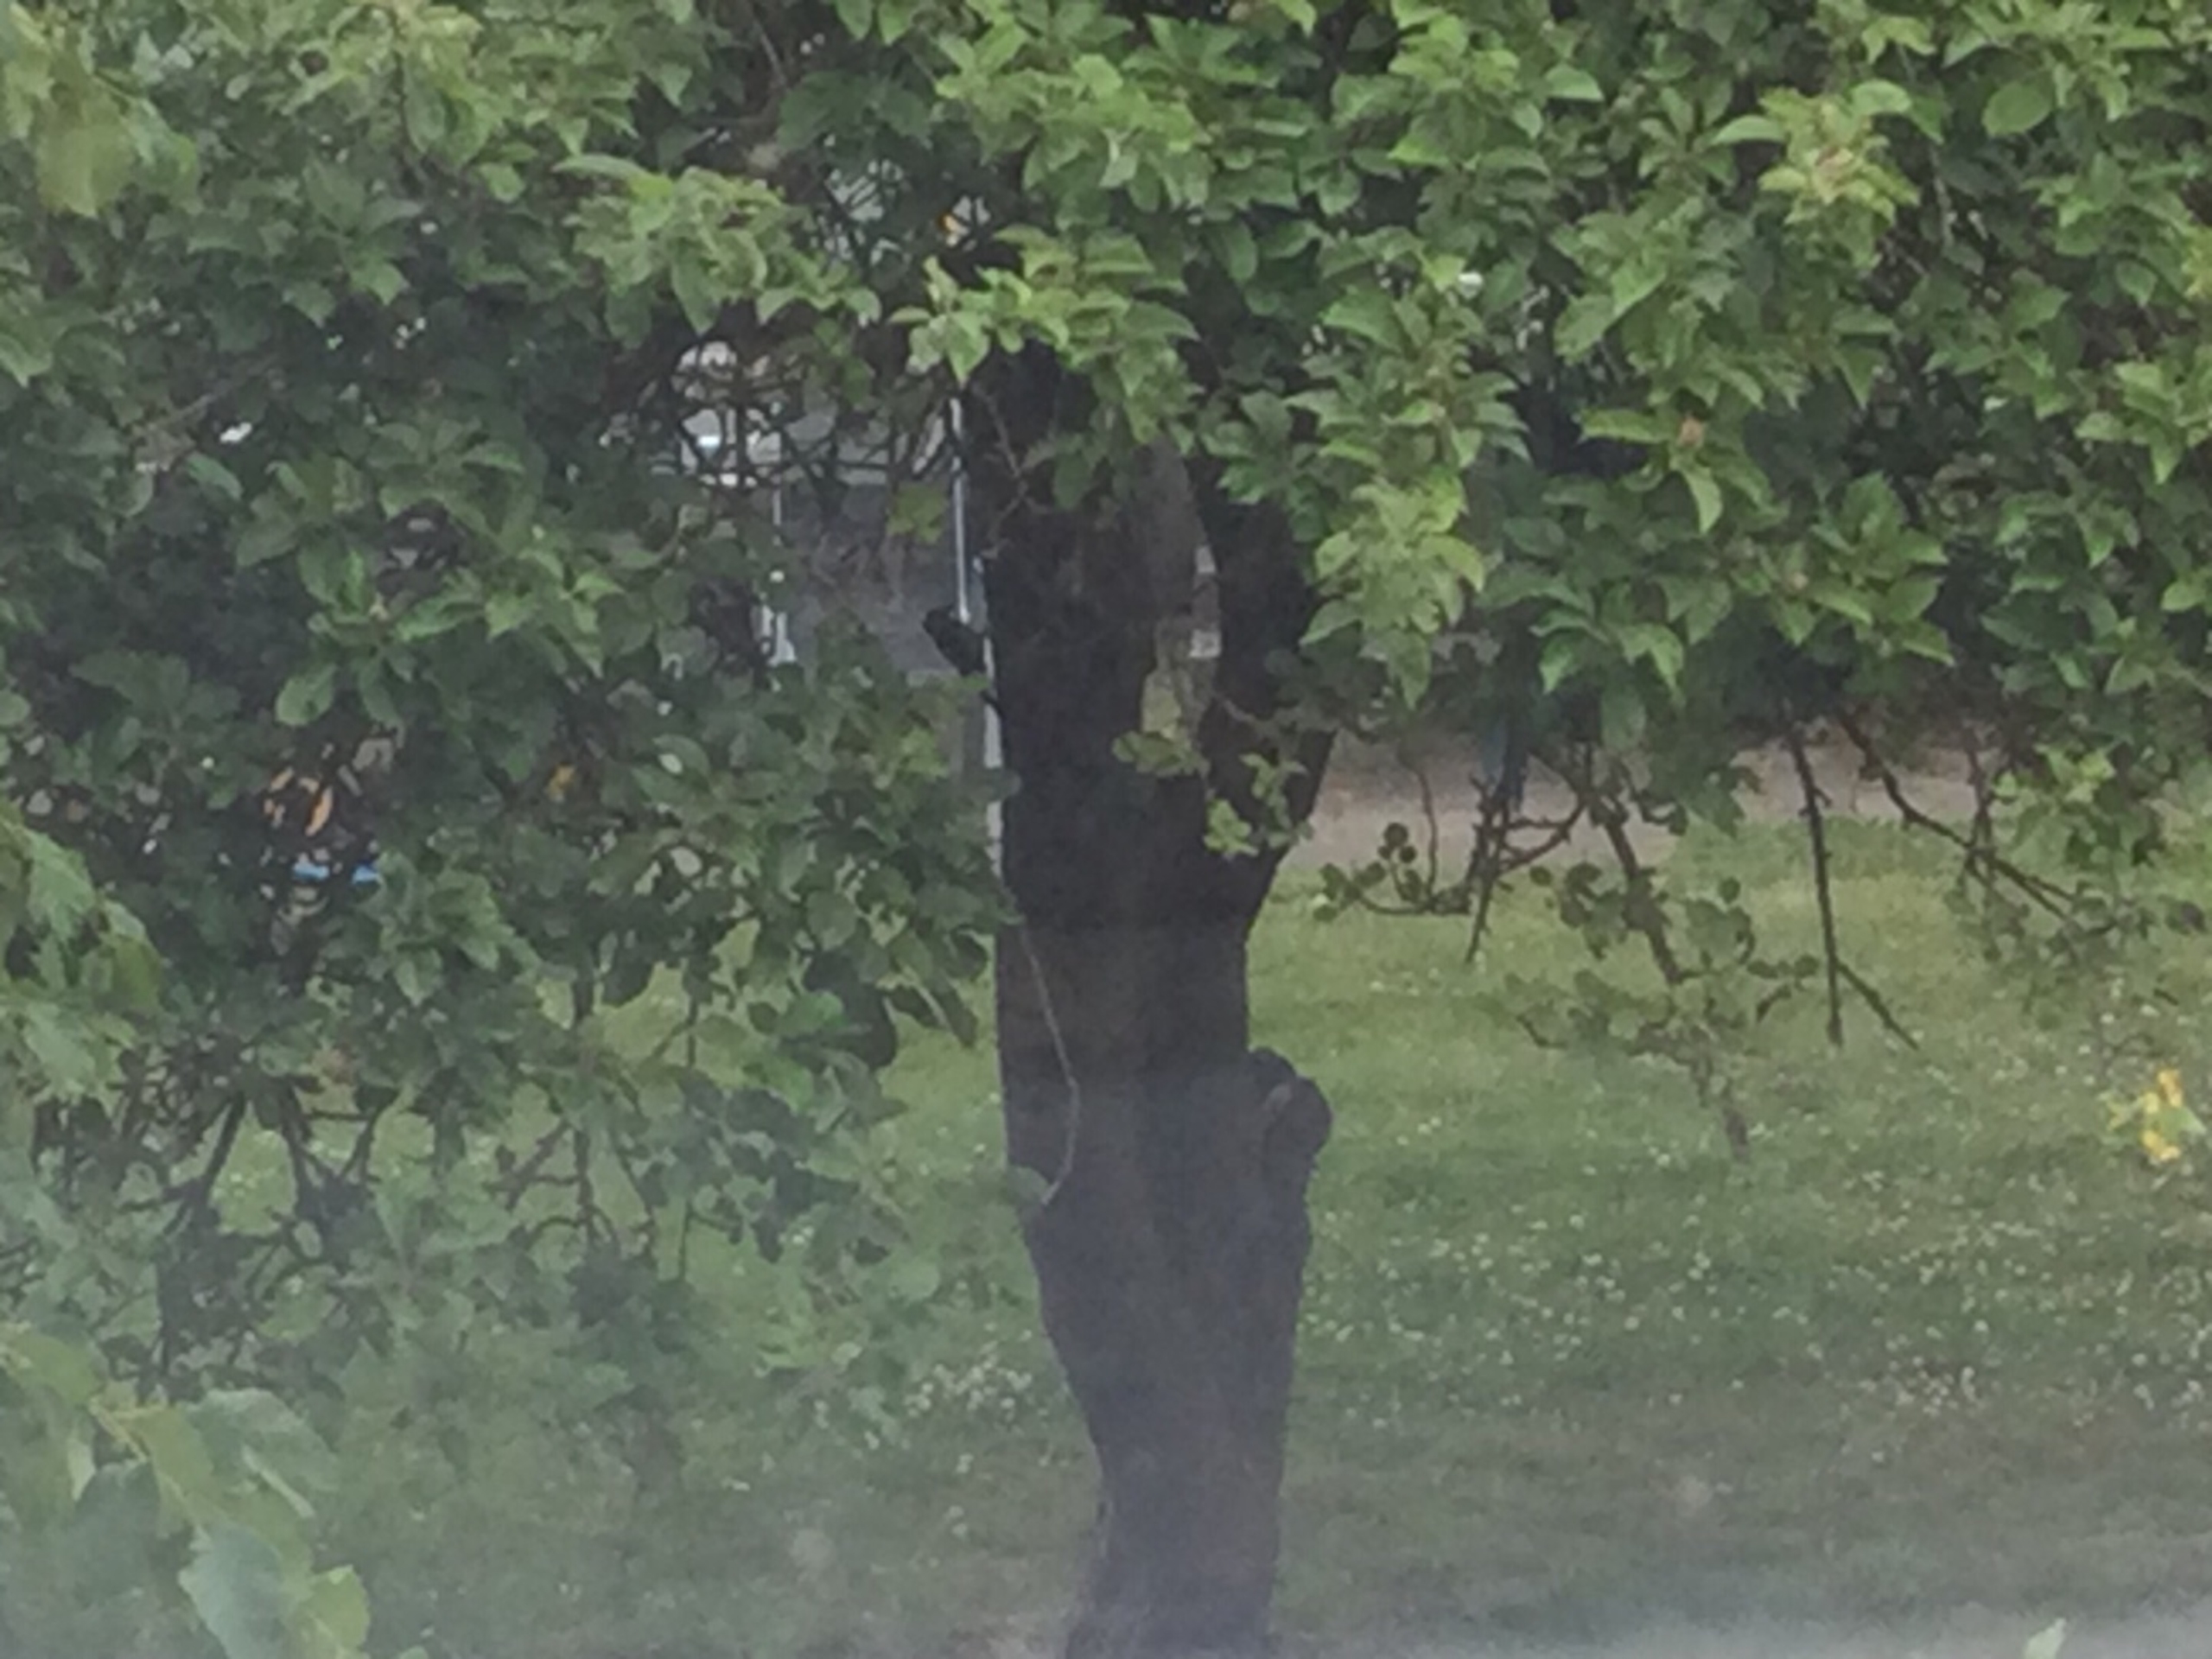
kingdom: Animalia
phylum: Chordata
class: Aves
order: Piciformes
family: Picidae
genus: Dendrocopos
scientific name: Dendrocopos major
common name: Stor flagspætte
